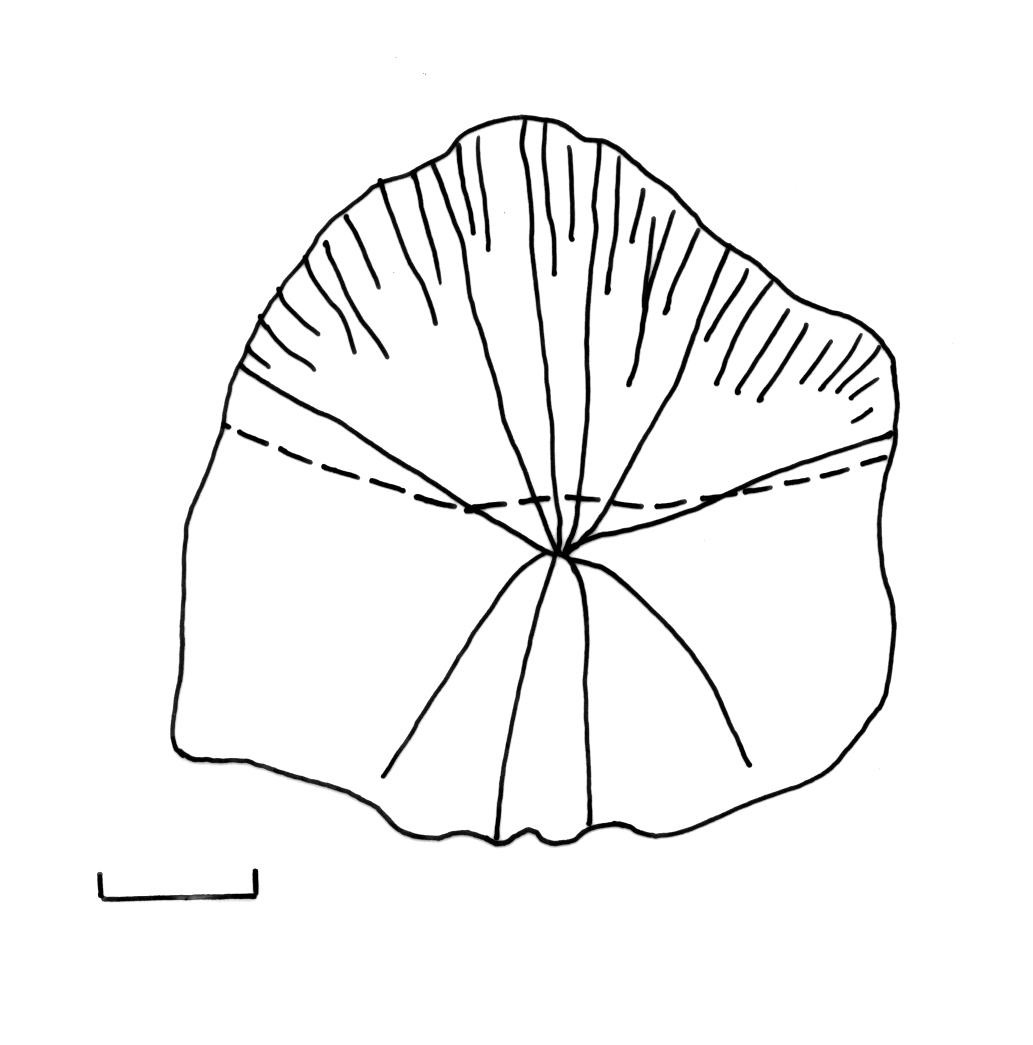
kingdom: Animalia
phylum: Chordata
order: Cypriniformes
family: Cyprinidae
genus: Enteromius
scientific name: Enteromius seymouri
